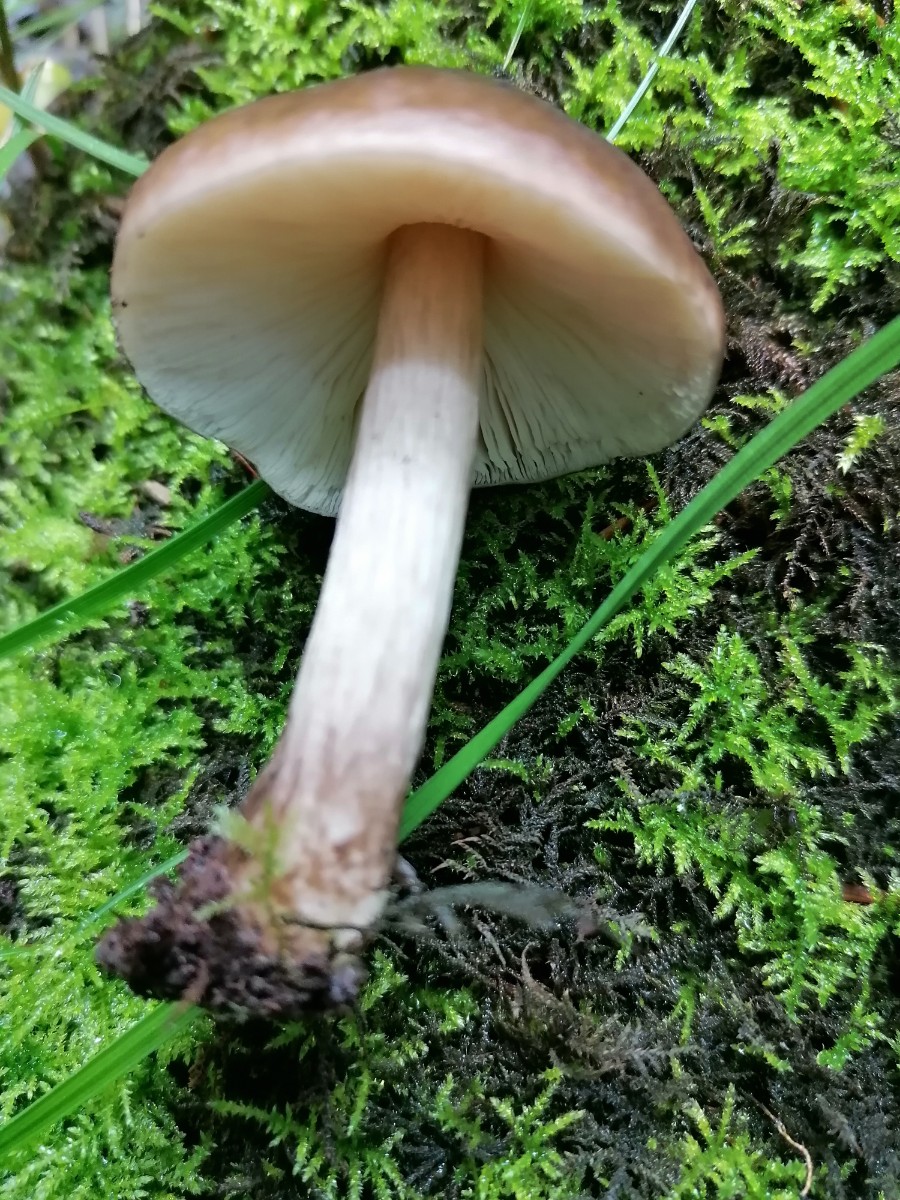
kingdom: Fungi
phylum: Basidiomycota
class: Agaricomycetes
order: Agaricales
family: Pluteaceae
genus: Pluteus
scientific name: Pluteus cervinus
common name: sodfarvet skærmhat
